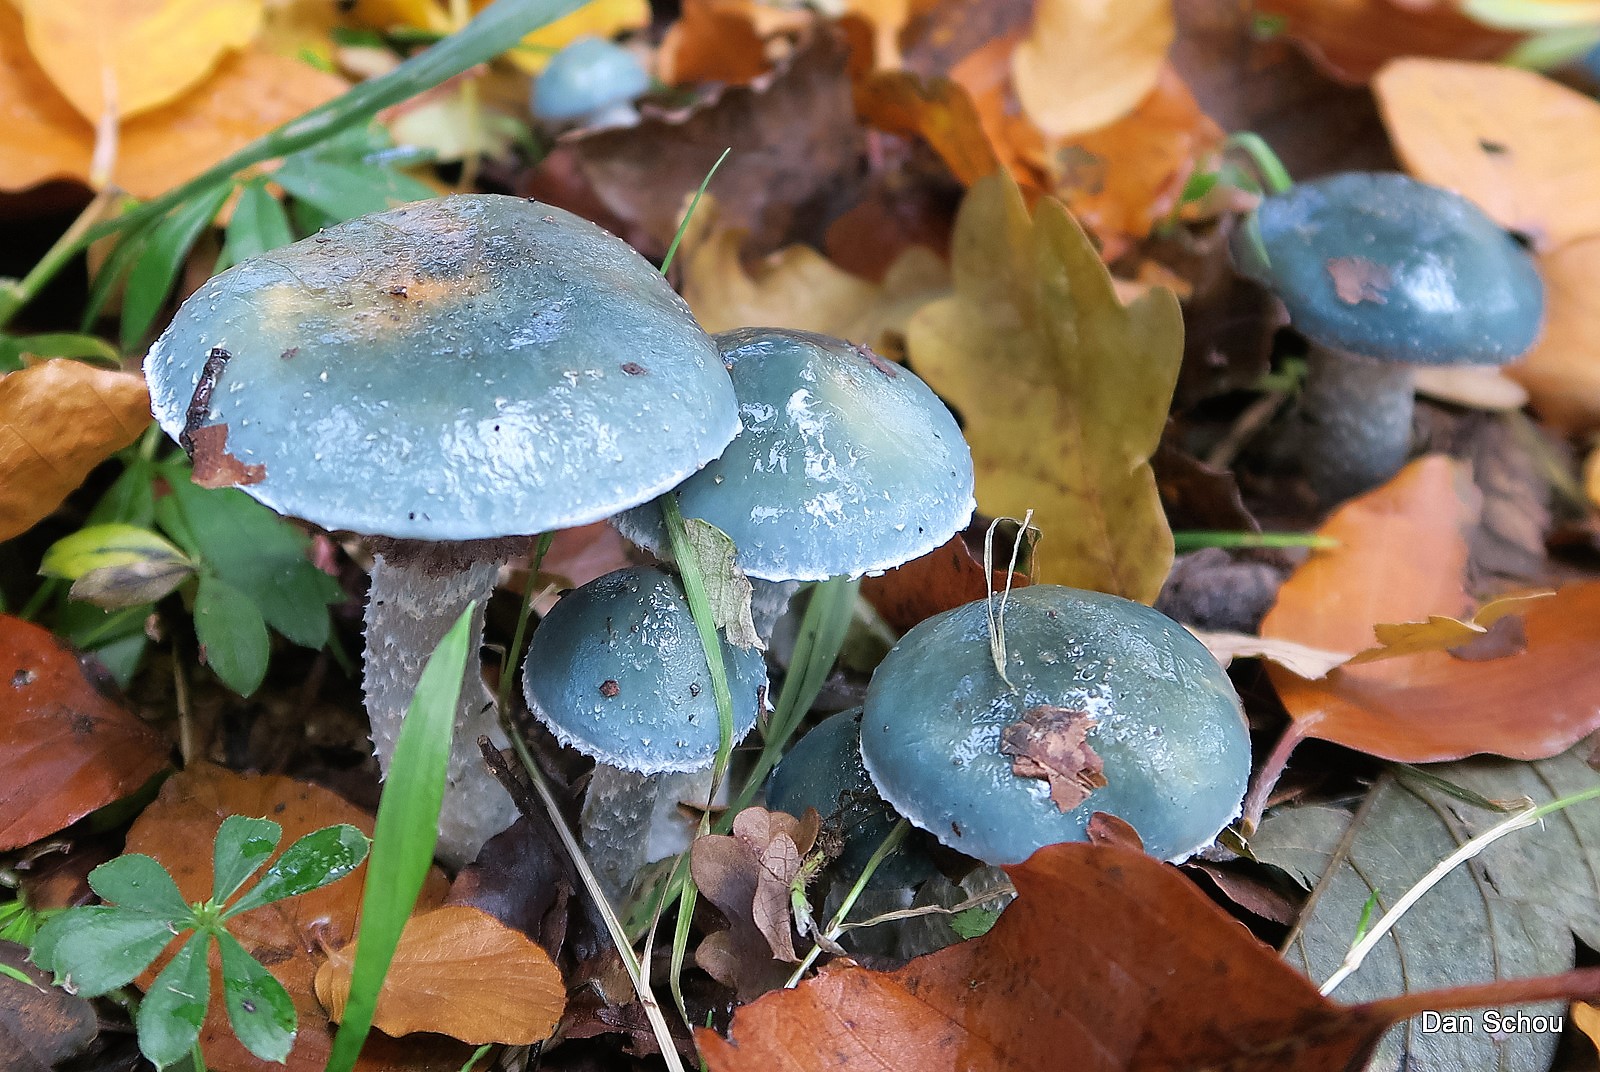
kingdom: Fungi
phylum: Basidiomycota
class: Agaricomycetes
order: Agaricales
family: Strophariaceae
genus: Stropharia
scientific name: Stropharia
